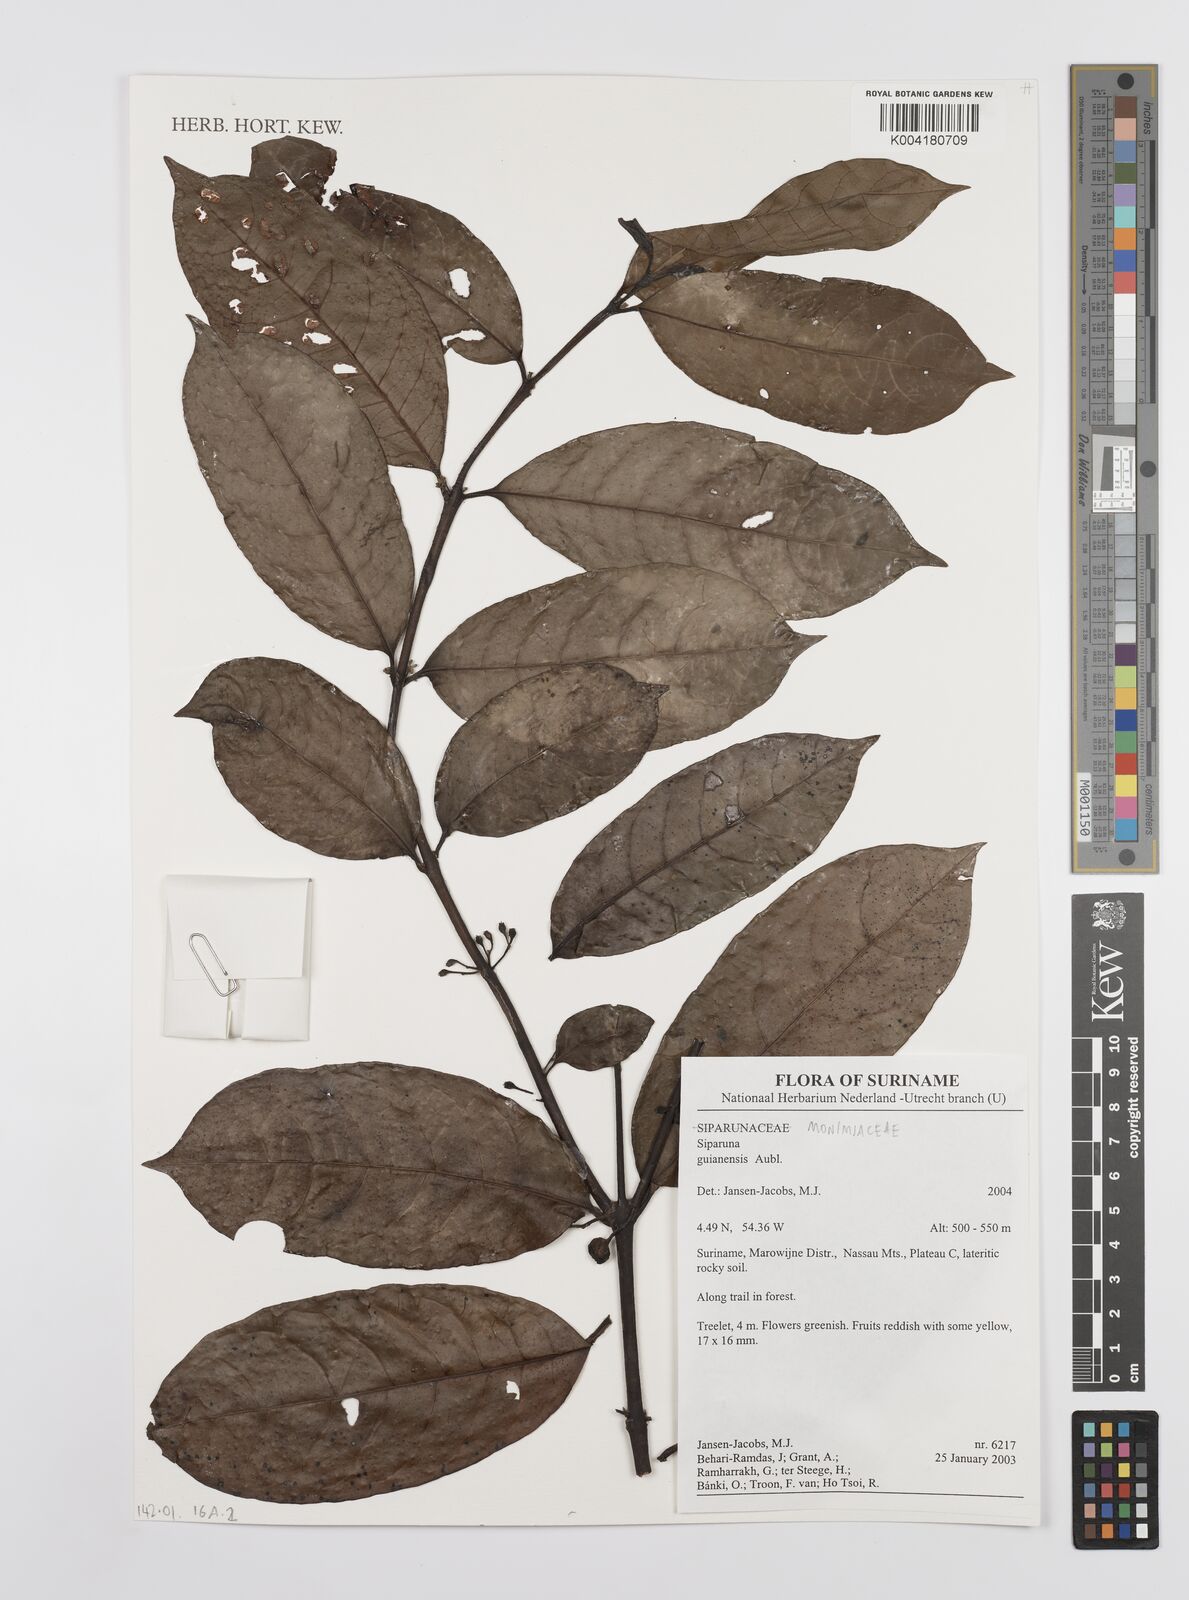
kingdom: Plantae
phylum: Tracheophyta
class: Magnoliopsida
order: Laurales
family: Siparunaceae
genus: Siparuna
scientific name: Siparuna guianensis
